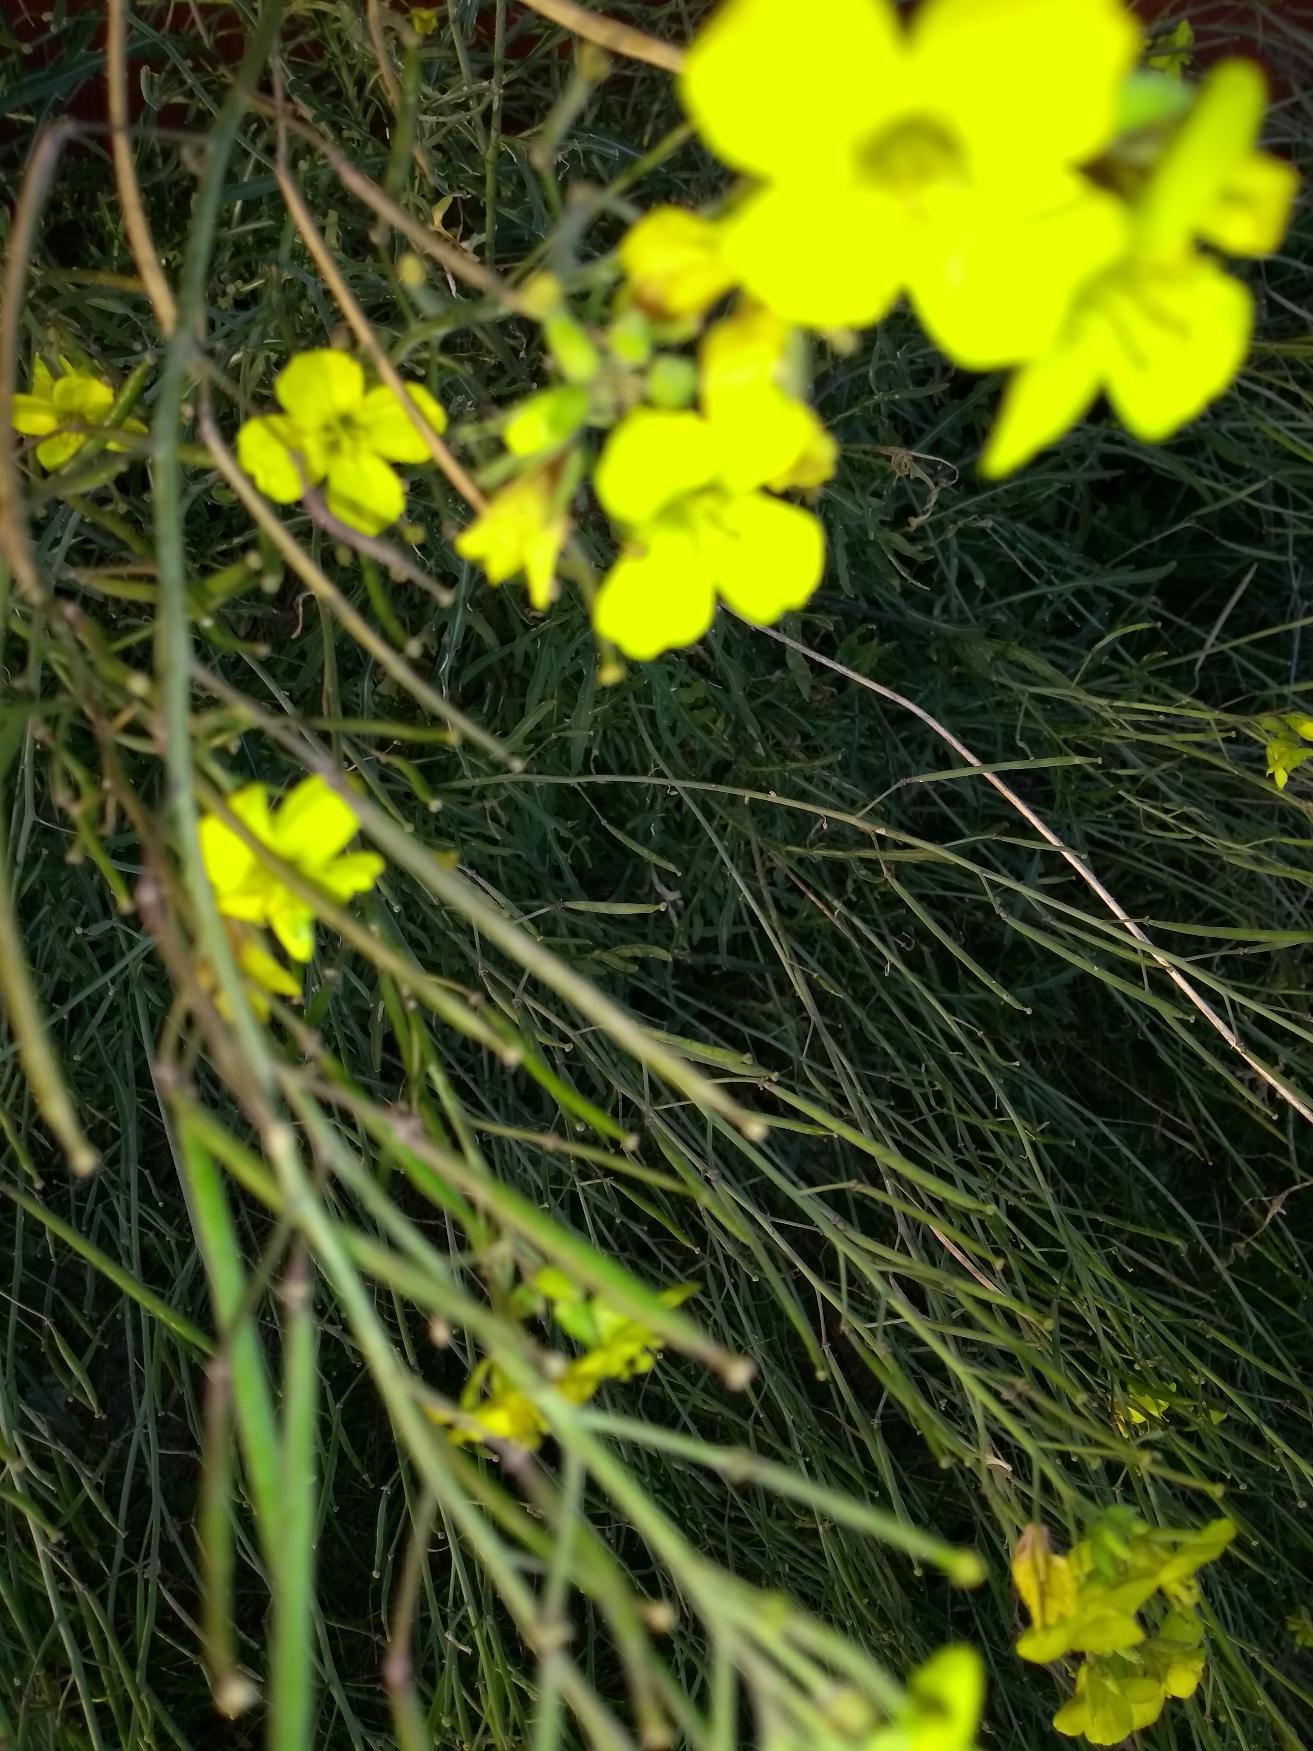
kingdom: Plantae
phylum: Tracheophyta
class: Magnoliopsida
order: Brassicales
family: Brassicaceae
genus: Diplotaxis
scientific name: Diplotaxis tenuifolia
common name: Sandsennep
